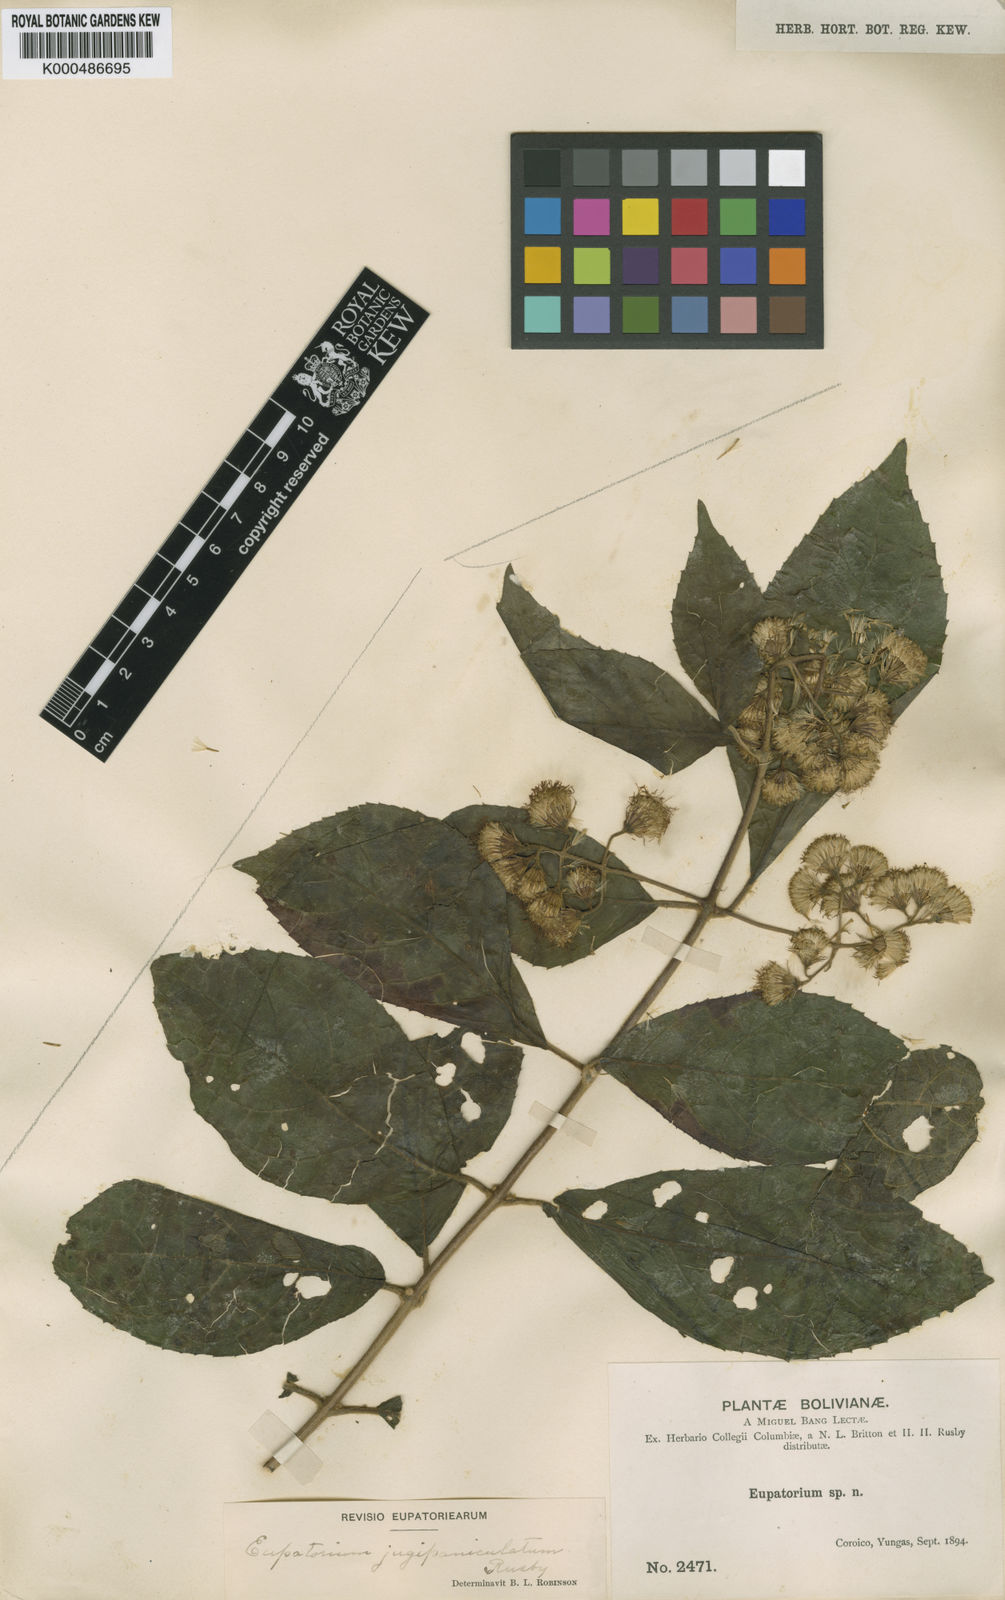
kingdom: Plantae
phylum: Tracheophyta
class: Magnoliopsida
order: Asterales
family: Asteraceae
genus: Koanophyllon
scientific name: Koanophyllon jugipaniculatum
